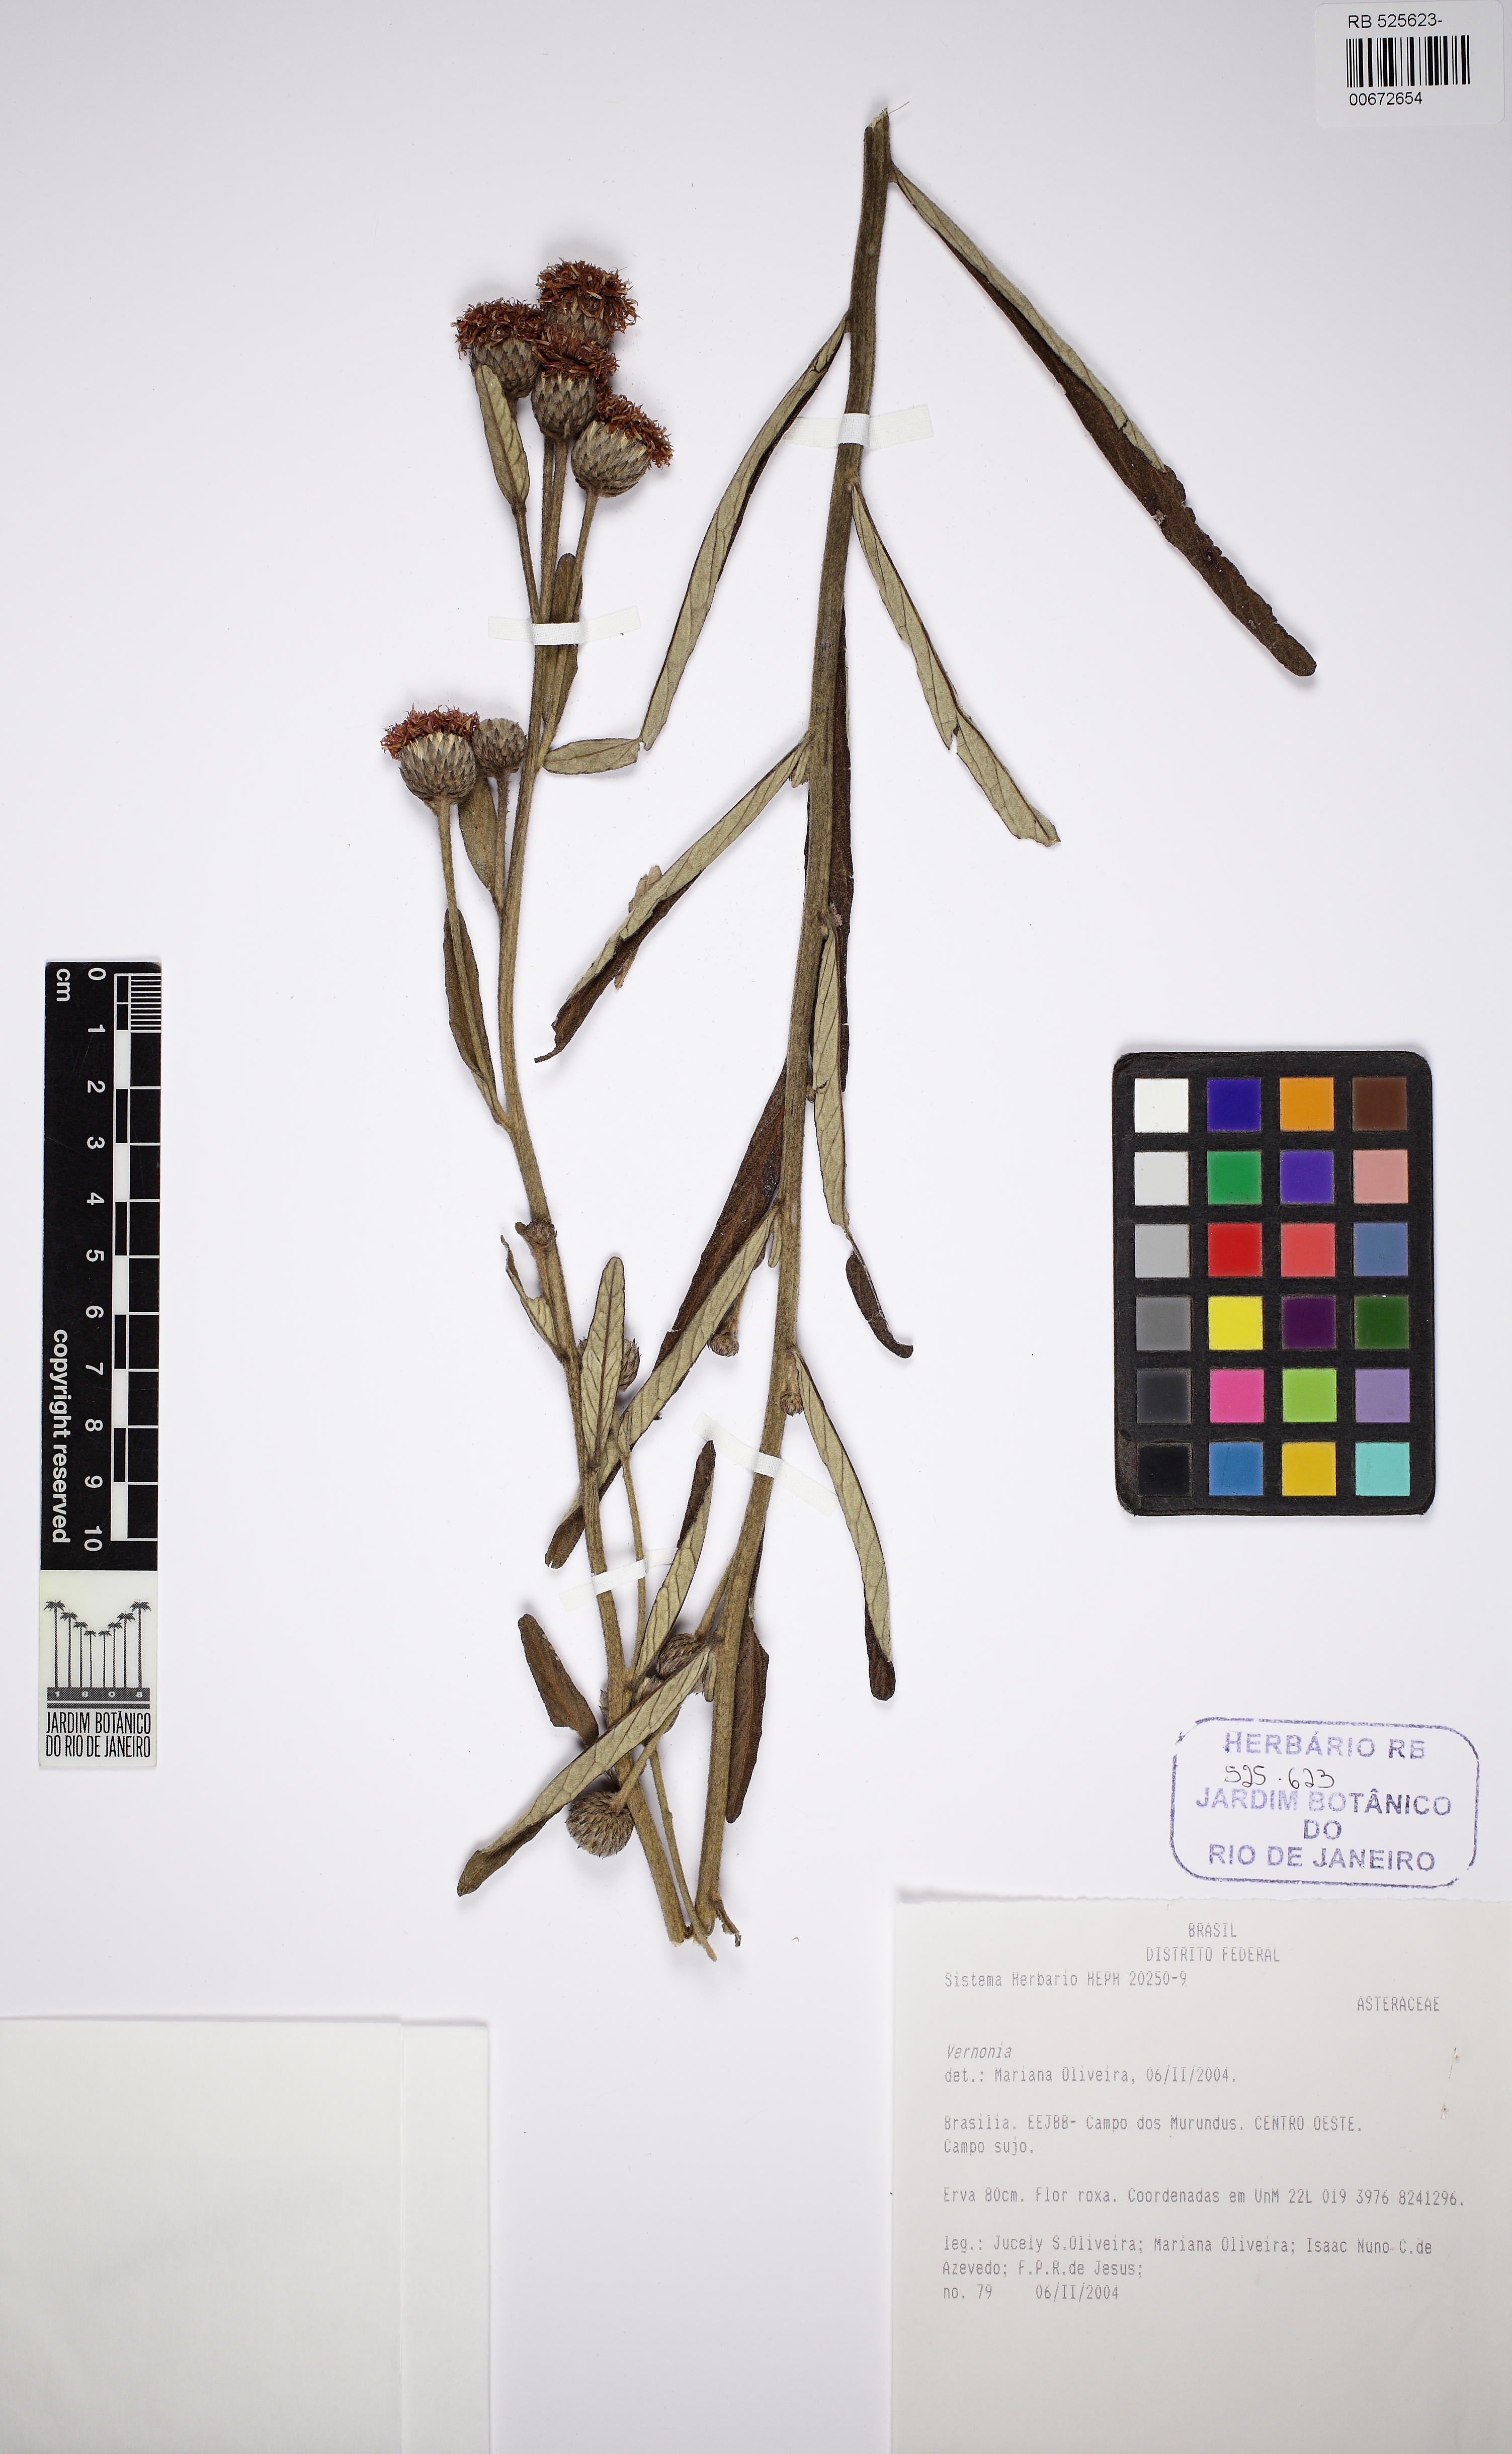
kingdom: Plantae
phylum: Tracheophyta
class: Magnoliopsida
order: Asterales
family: Asteraceae
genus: Vernonia
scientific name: Vernonia
